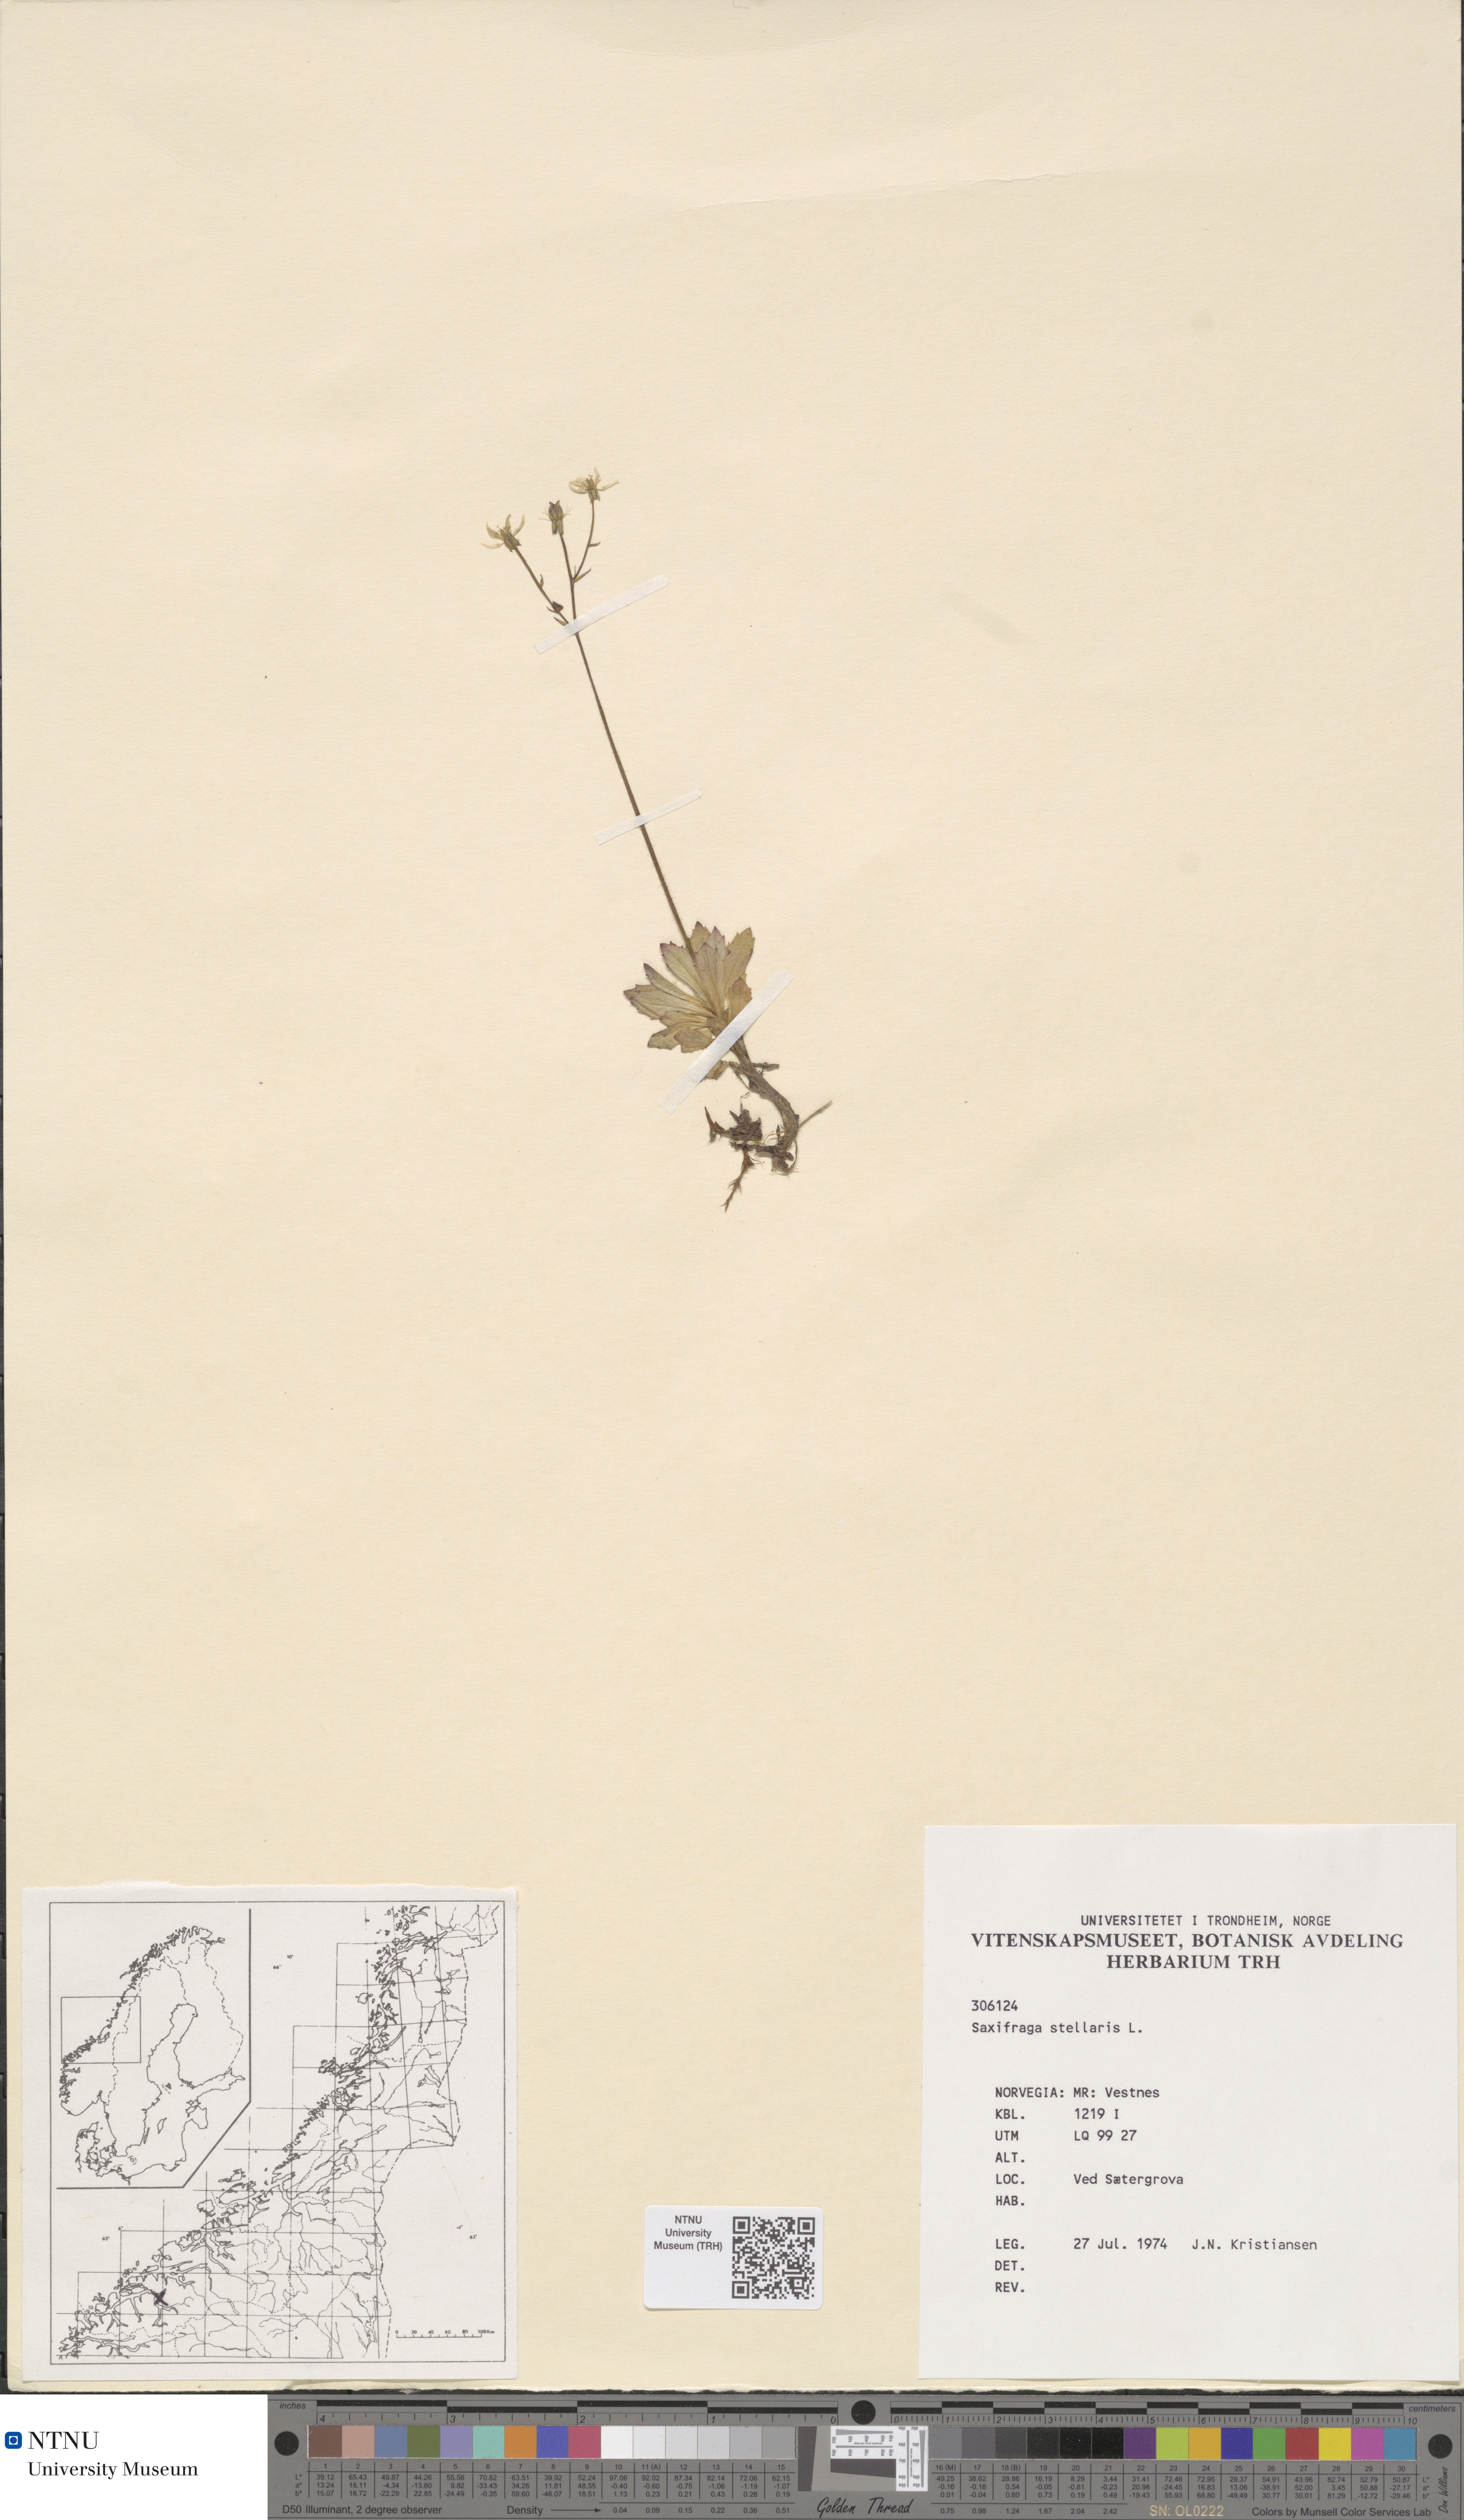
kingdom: Plantae
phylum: Tracheophyta
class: Magnoliopsida
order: Saxifragales
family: Saxifragaceae
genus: Micranthes
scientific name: Micranthes stellaris
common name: Starry saxifrage
